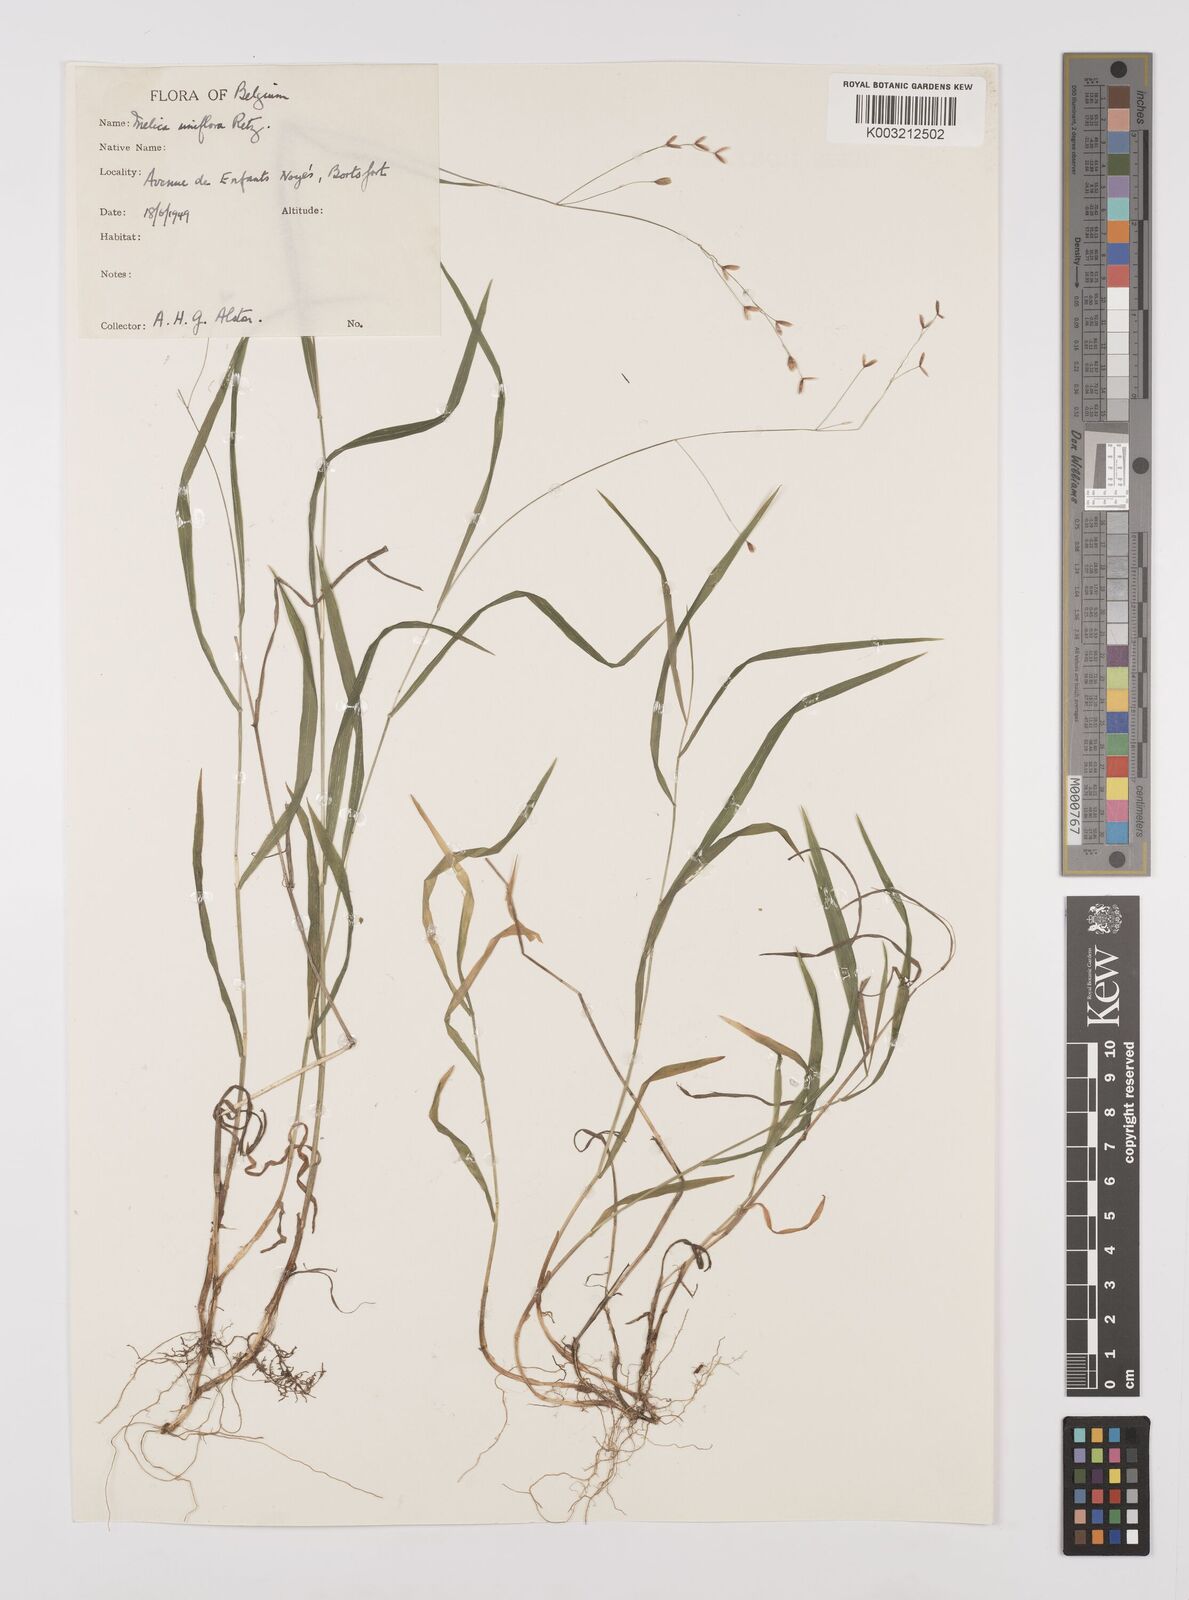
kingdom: Plantae
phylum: Tracheophyta
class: Liliopsida
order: Poales
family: Poaceae
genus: Melica
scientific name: Melica uniflora
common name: Wood melick
